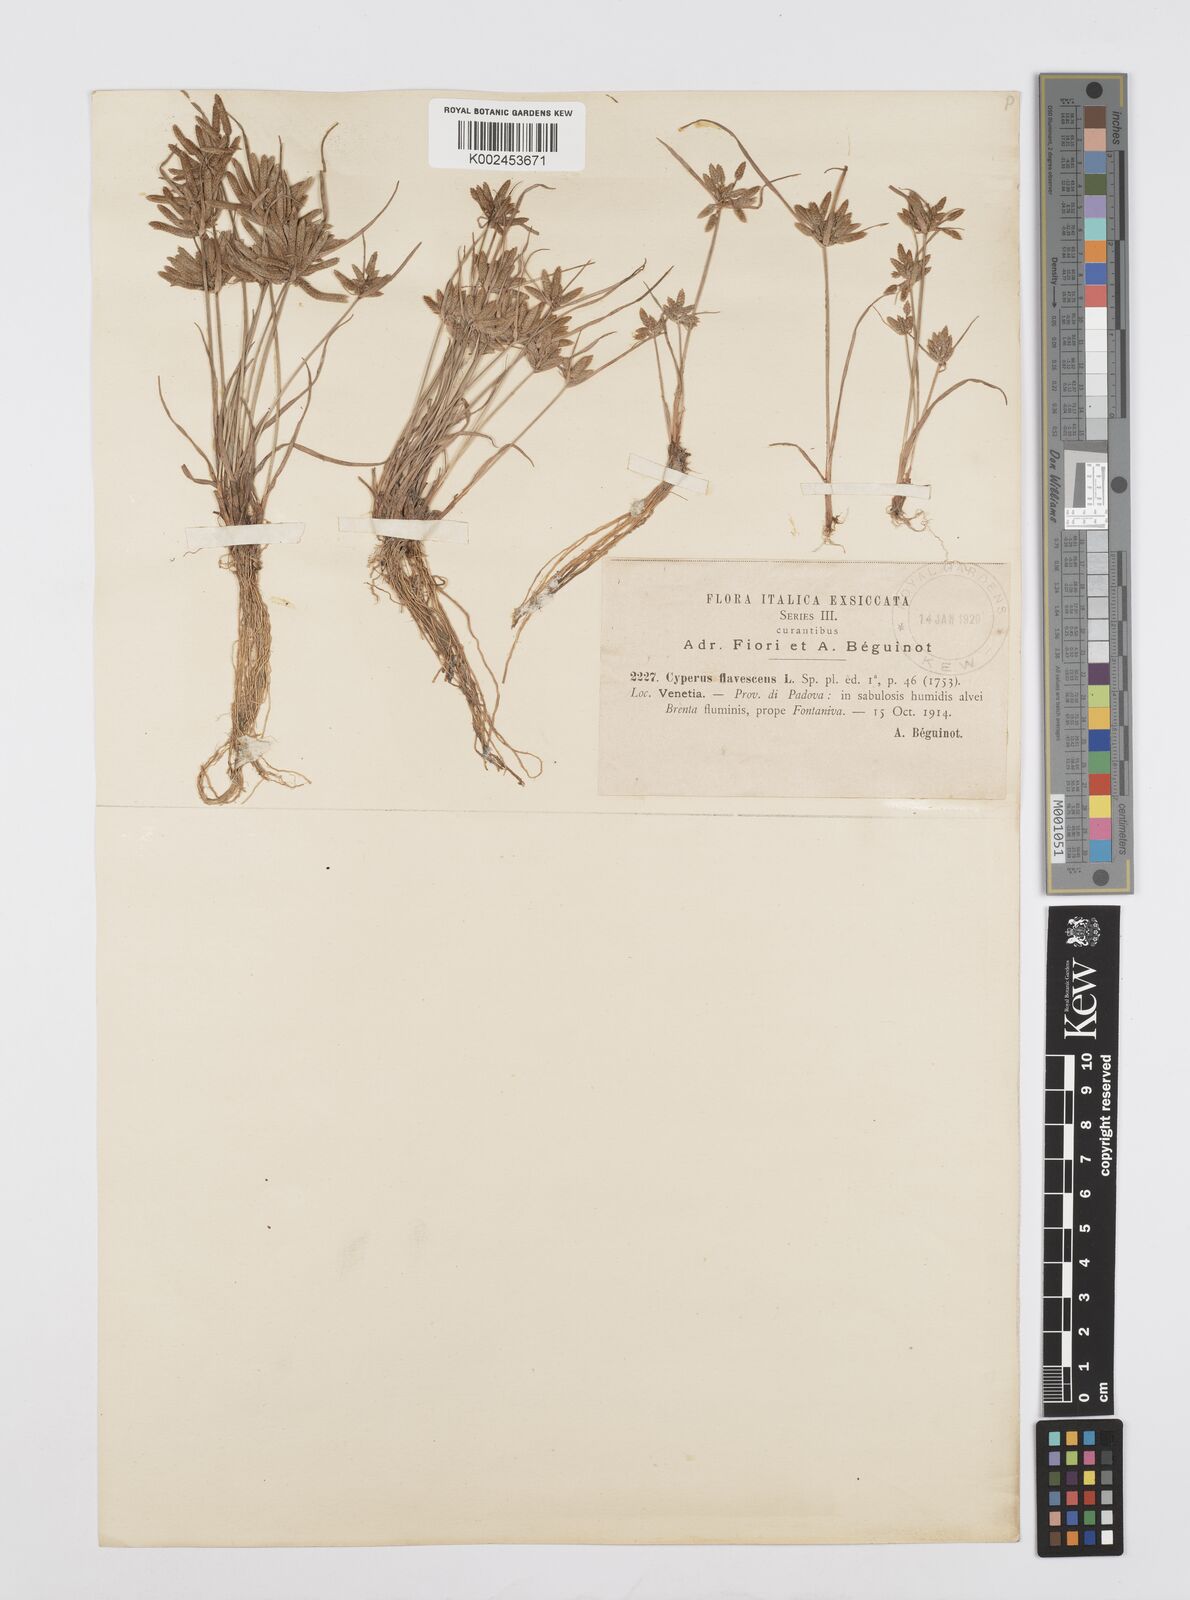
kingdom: Plantae
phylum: Tracheophyta
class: Liliopsida
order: Poales
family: Cyperaceae
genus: Cyperus
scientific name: Cyperus flavescens
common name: Yellow galingale
